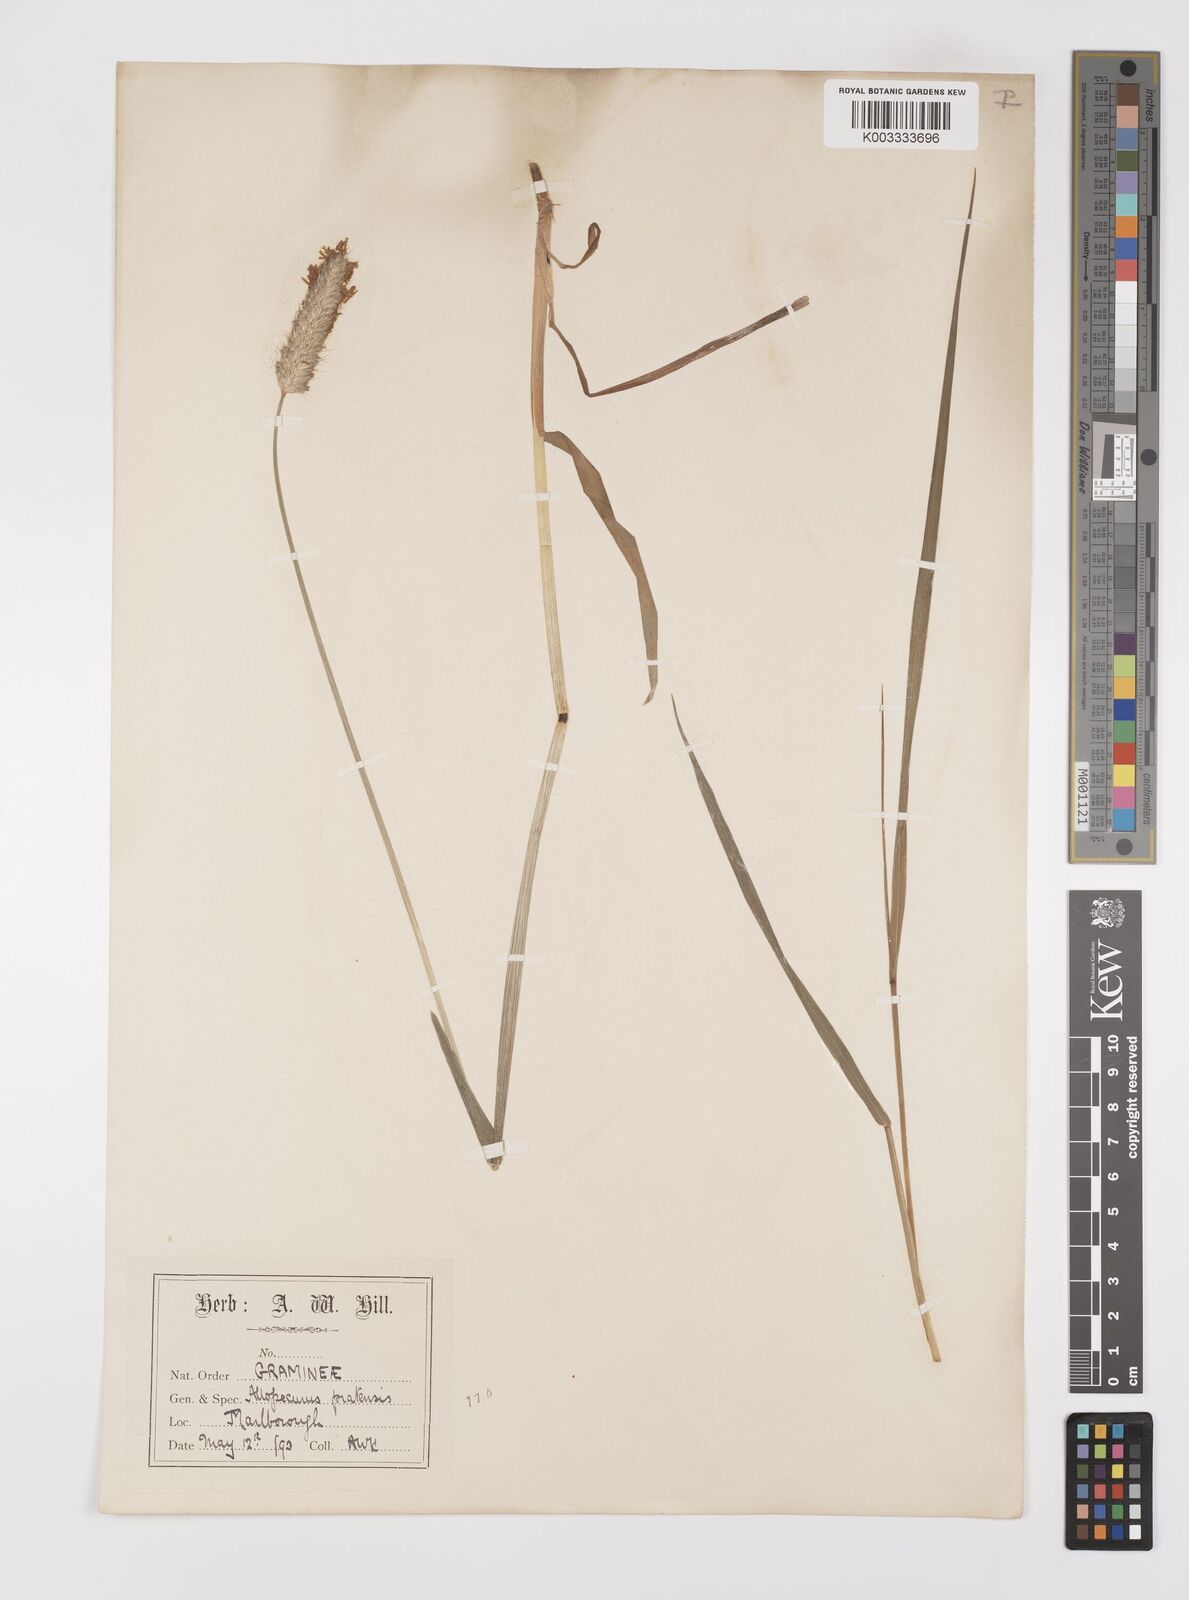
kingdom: Plantae
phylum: Tracheophyta
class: Liliopsida
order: Poales
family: Poaceae
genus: Alopecurus
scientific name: Alopecurus pratensis
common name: Meadow foxtail
